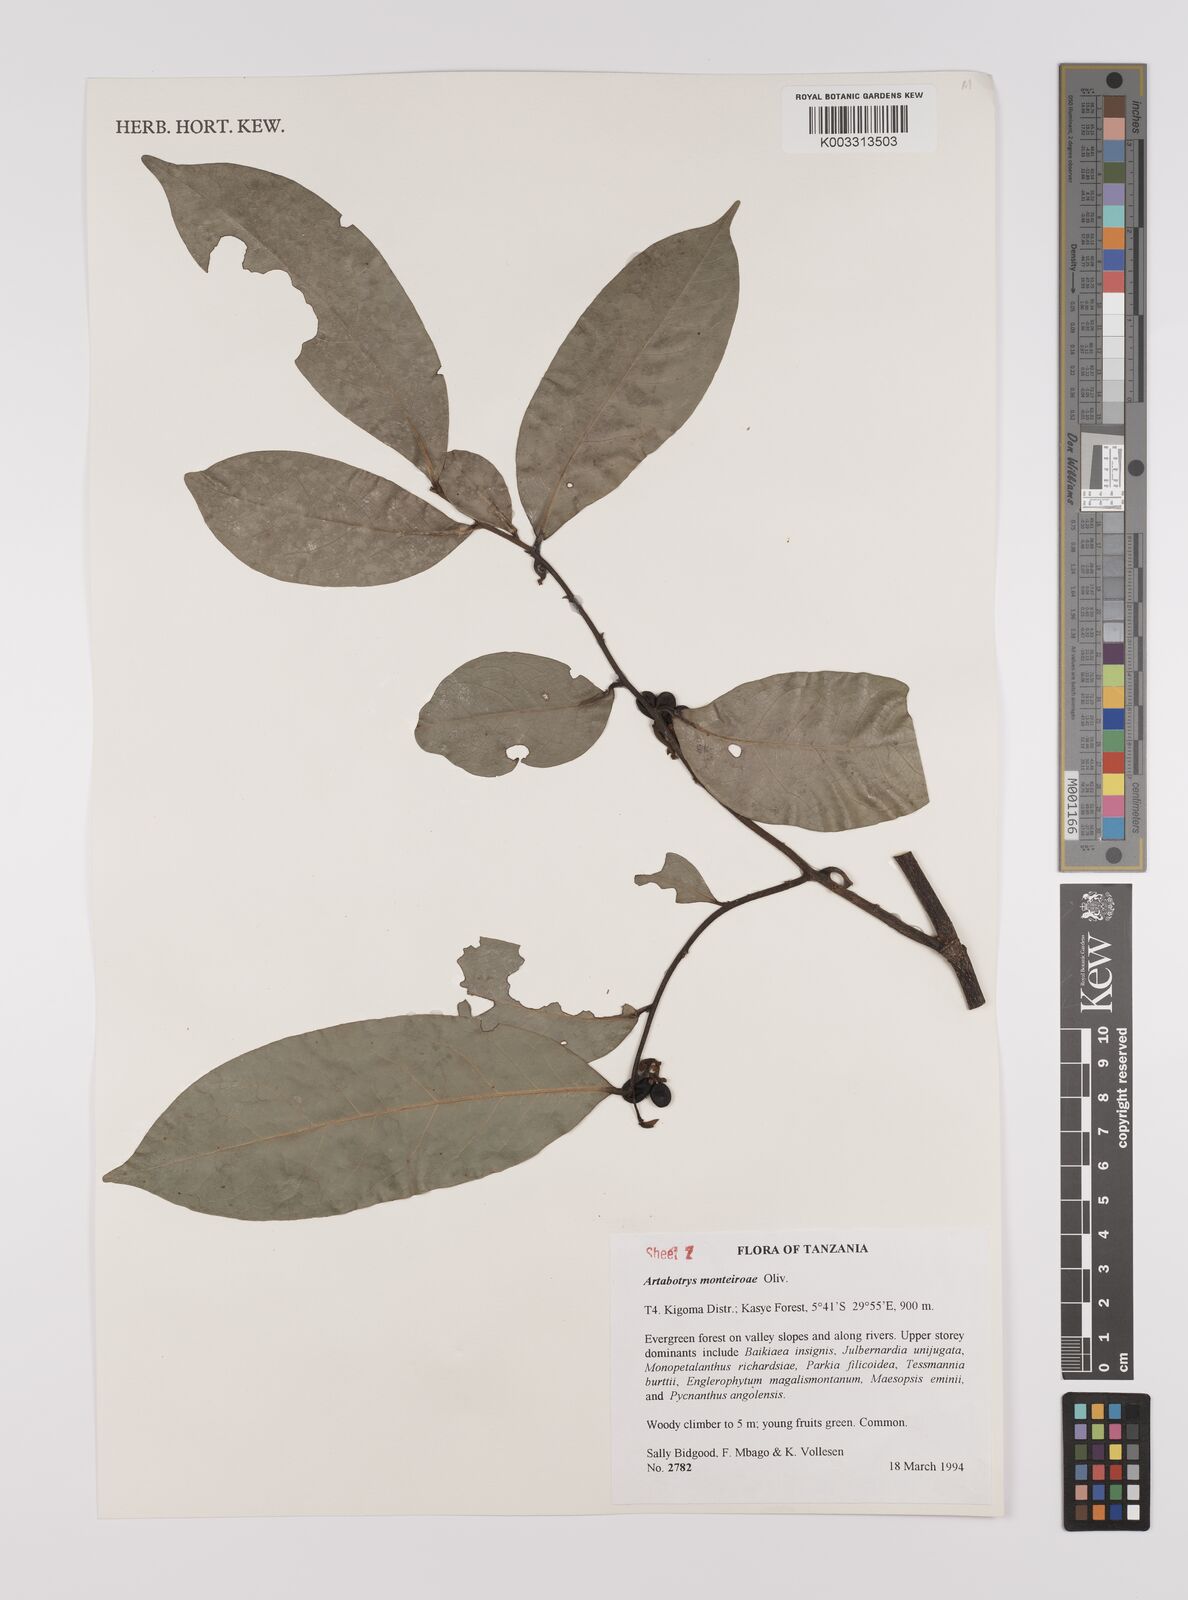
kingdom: Plantae
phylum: Tracheophyta
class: Magnoliopsida
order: Magnoliales
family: Annonaceae
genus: Artabotrys
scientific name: Artabotrys monteiroae
